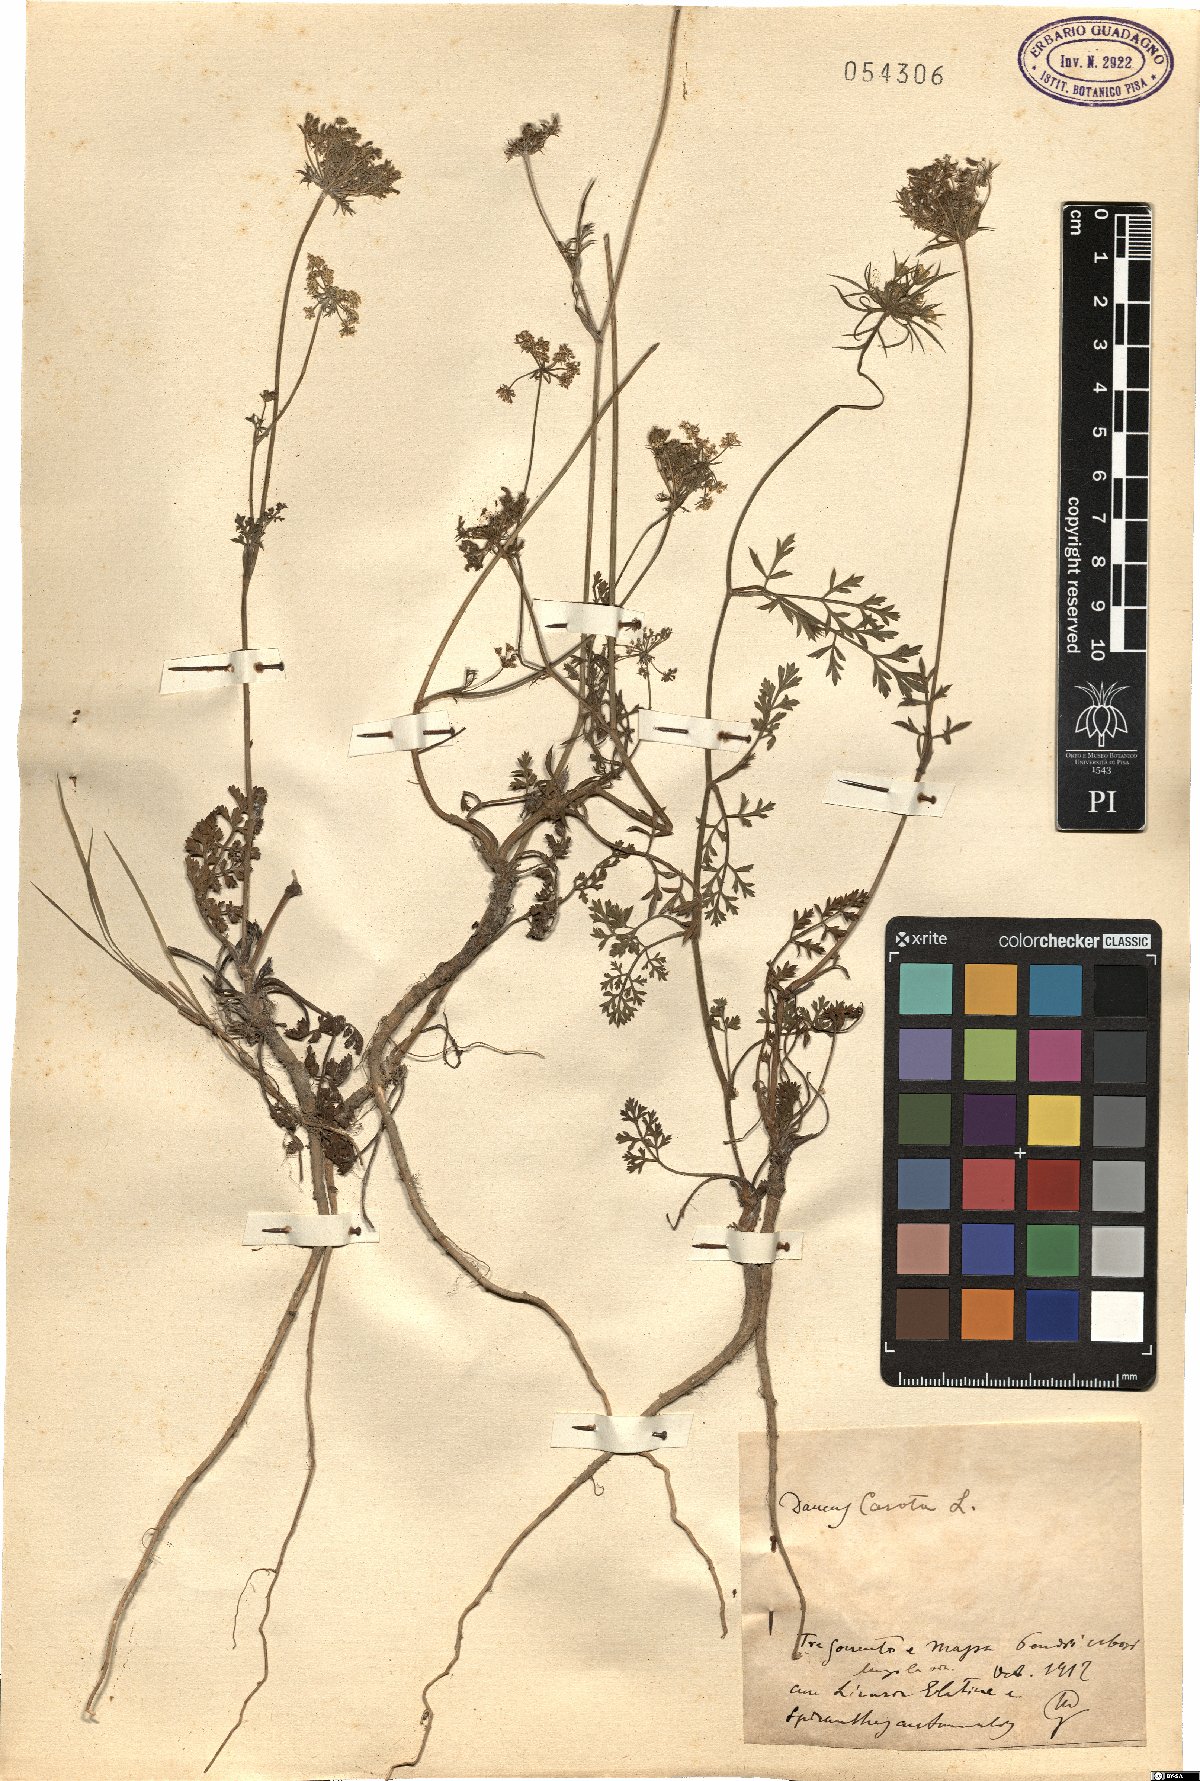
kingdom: Plantae
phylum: Tracheophyta
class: Magnoliopsida
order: Apiales
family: Apiaceae
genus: Daucus
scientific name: Daucus carota
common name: Wild carrot
